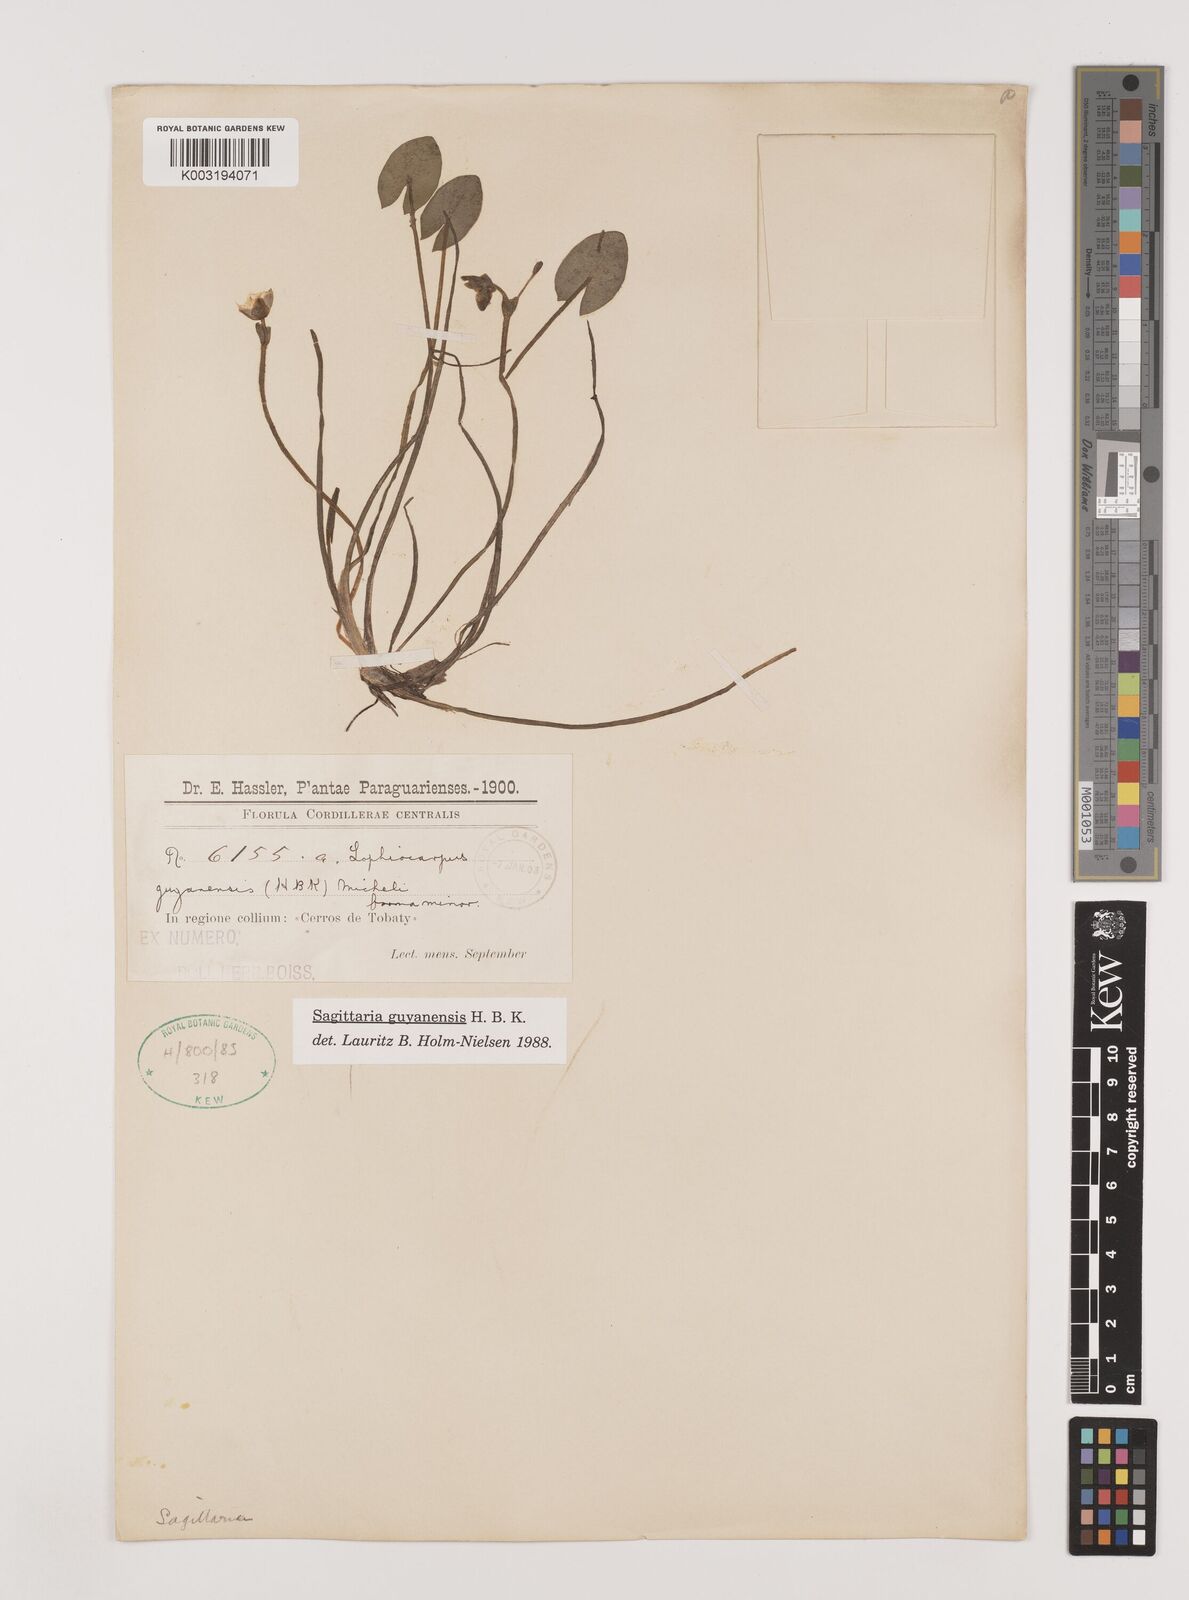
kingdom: Plantae
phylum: Tracheophyta
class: Liliopsida
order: Alismatales
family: Alismataceae
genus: Sagittaria
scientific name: Sagittaria guayanensis
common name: Guyanese arrowhead
